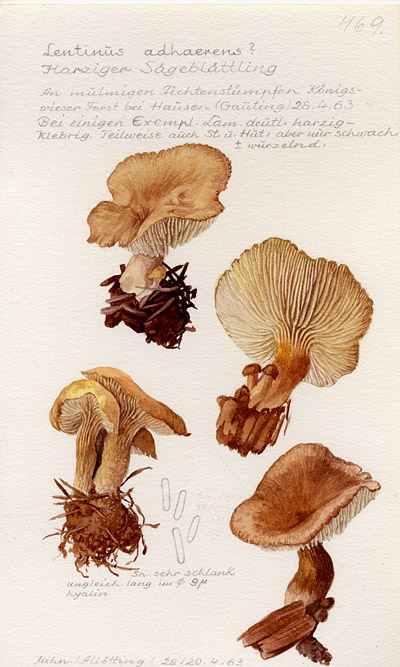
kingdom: Fungi
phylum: Basidiomycota
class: Agaricomycetes
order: Gloeophyllales
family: Gloeophyllaceae
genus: Neolentinus
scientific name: Neolentinus adhaerens
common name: Sticky sawgill
